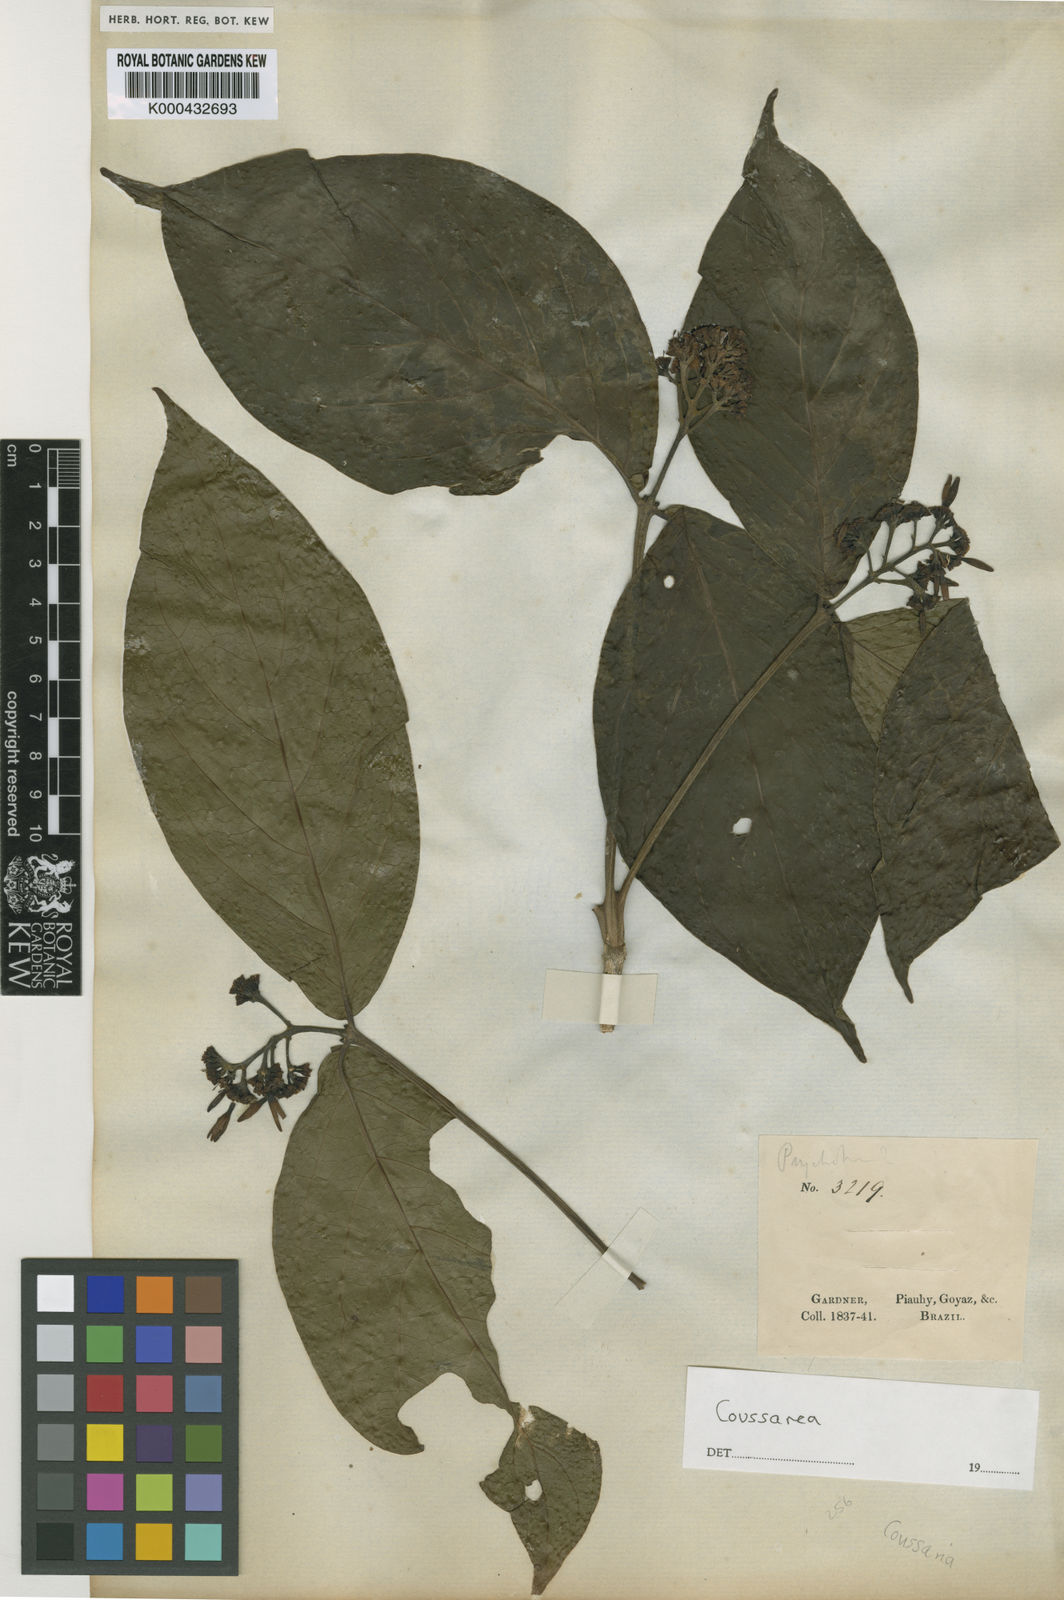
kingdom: Plantae
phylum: Tracheophyta
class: Magnoliopsida
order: Gentianales
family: Rubiaceae
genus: Coussarea
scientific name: Coussarea
